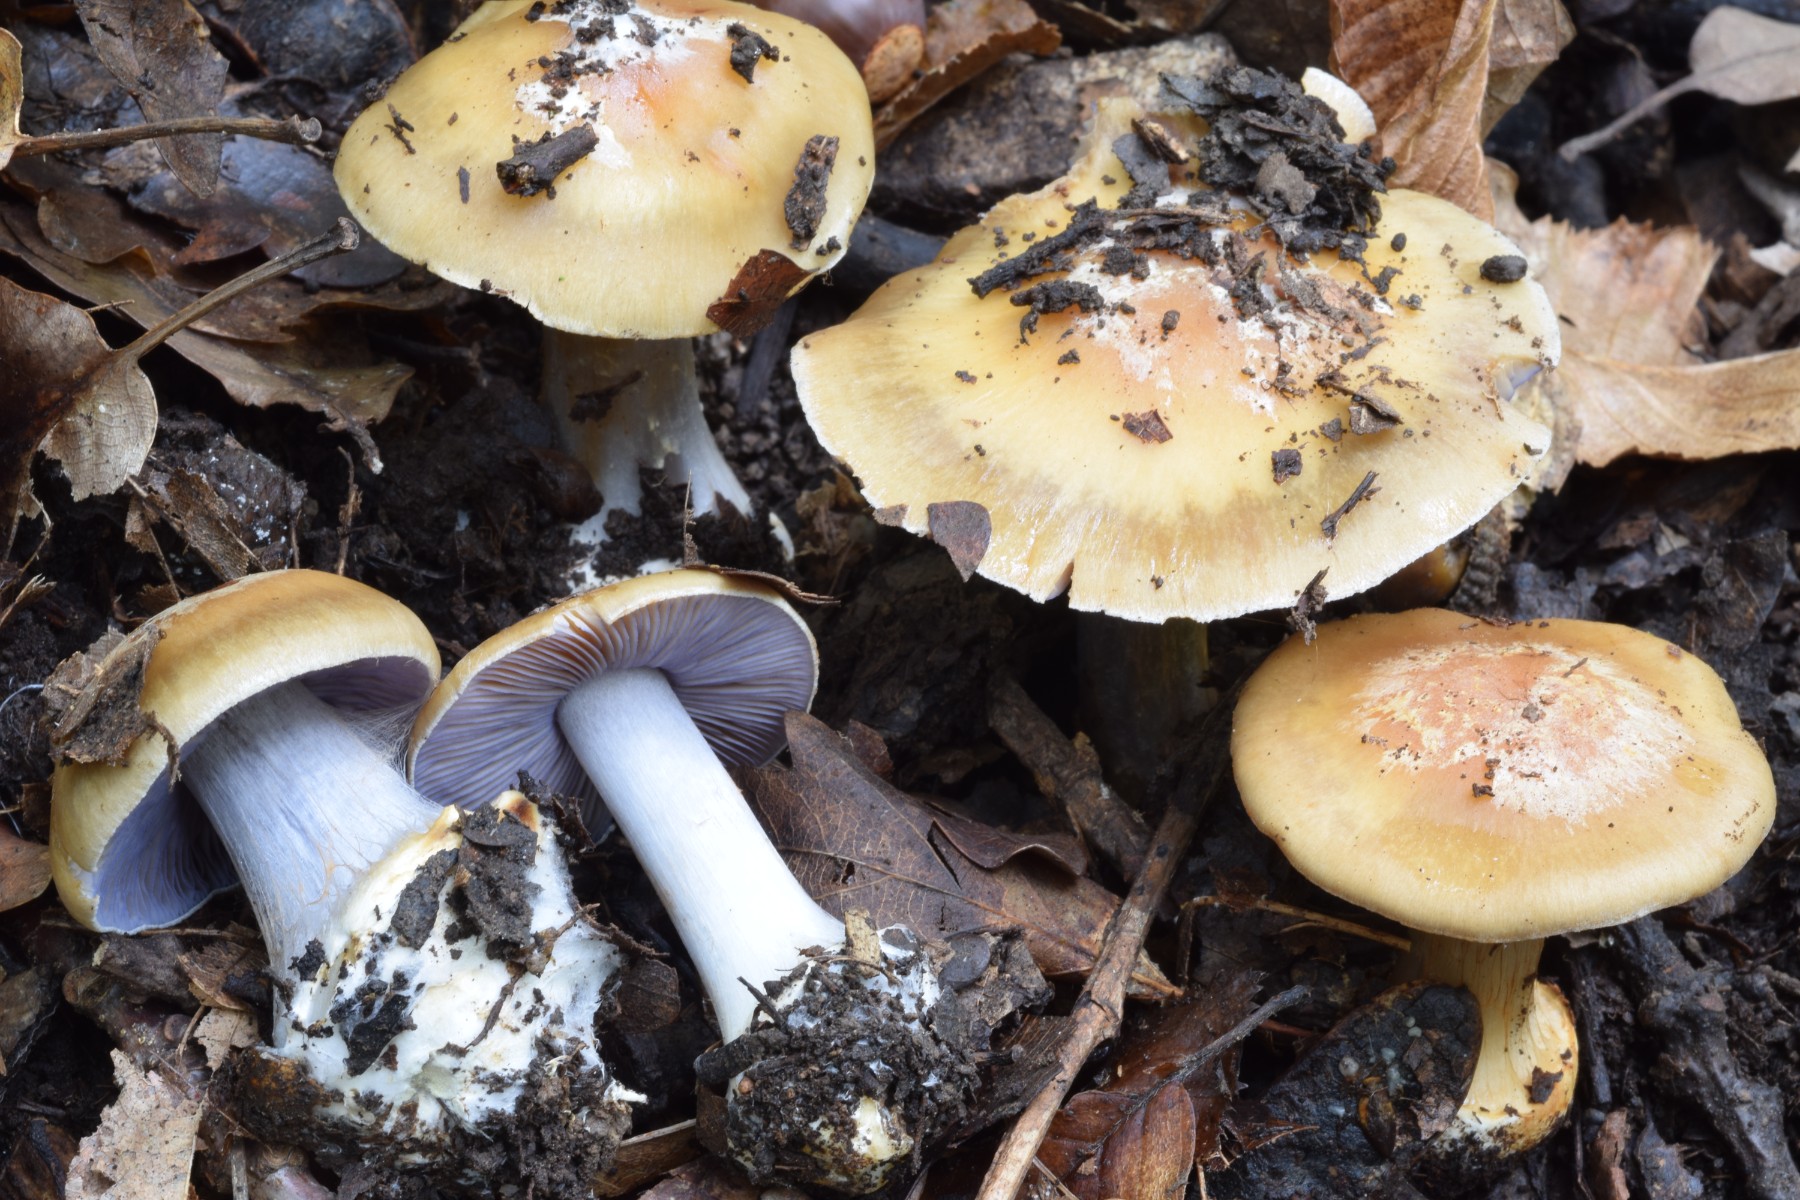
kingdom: Fungi
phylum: Basidiomycota
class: Agaricomycetes
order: Agaricales
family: Cortinariaceae
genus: Phlegmacium
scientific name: Phlegmacium violaceoserrulatum
